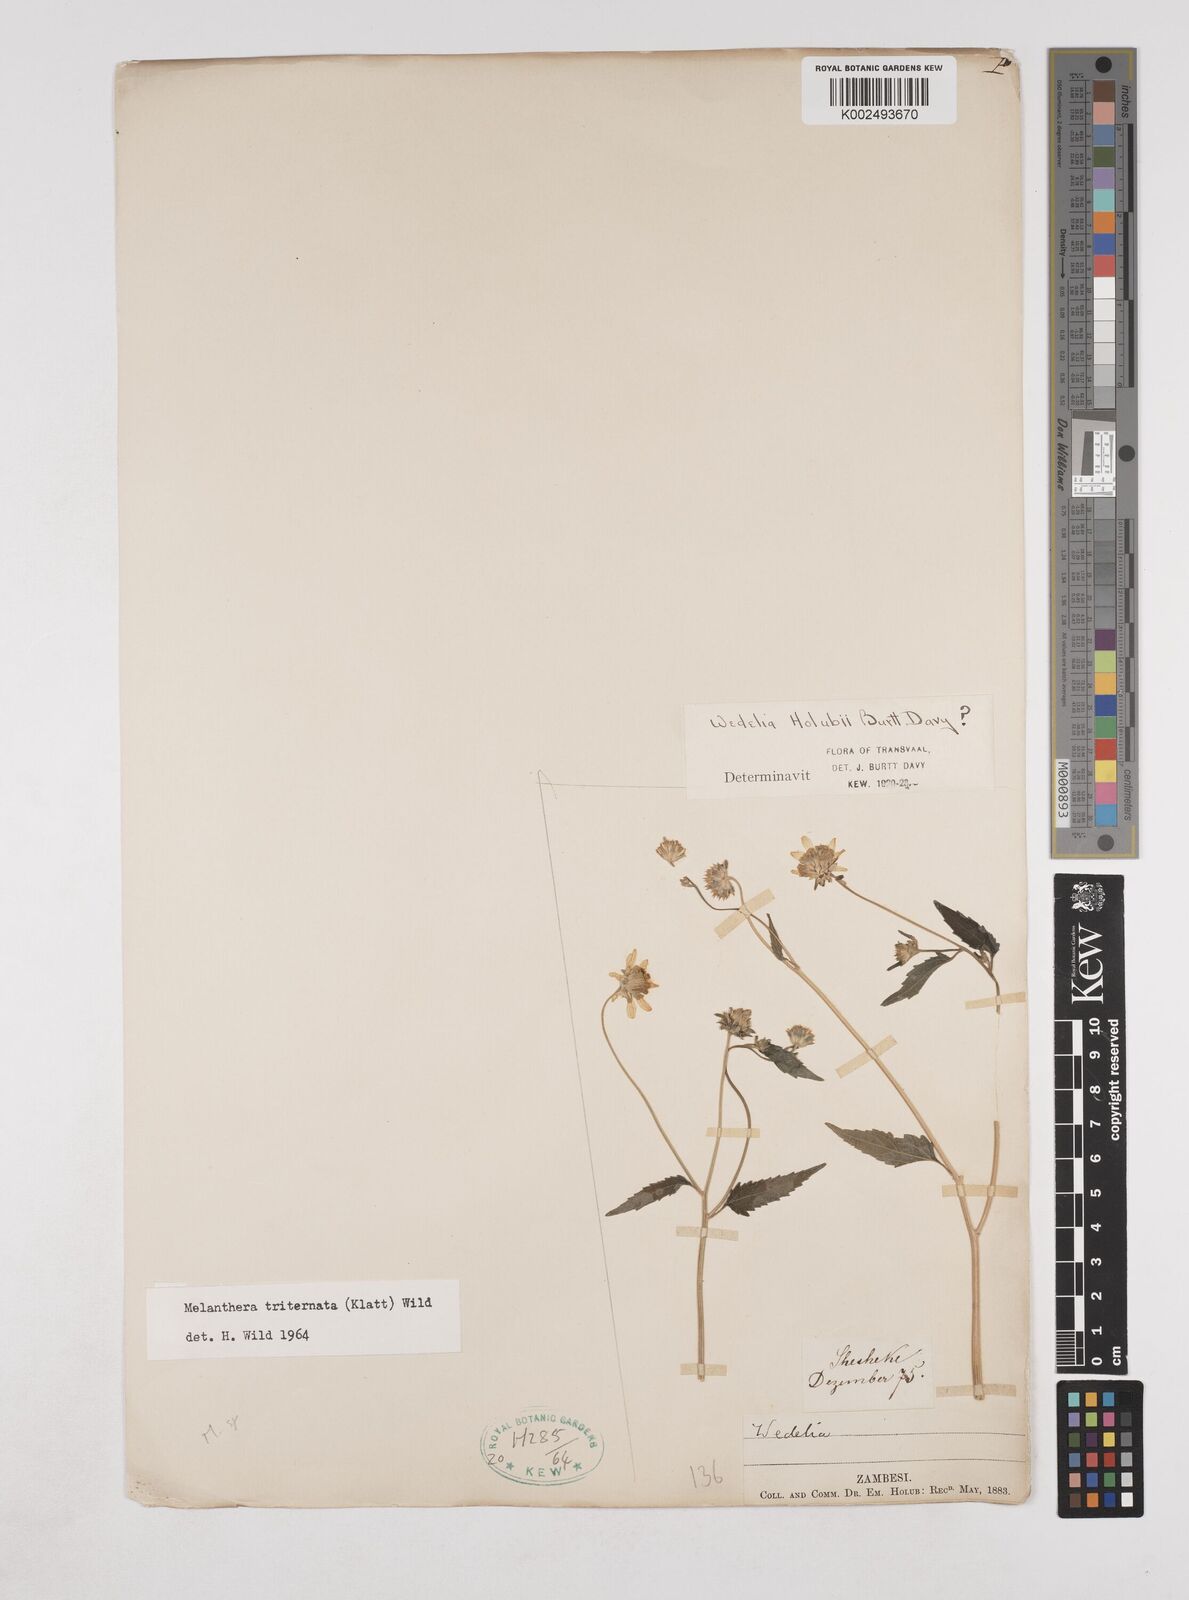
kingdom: Plantae
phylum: Tracheophyta
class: Magnoliopsida
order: Asterales
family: Asteraceae
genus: Lipotriche
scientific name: Lipotriche marlothiana
